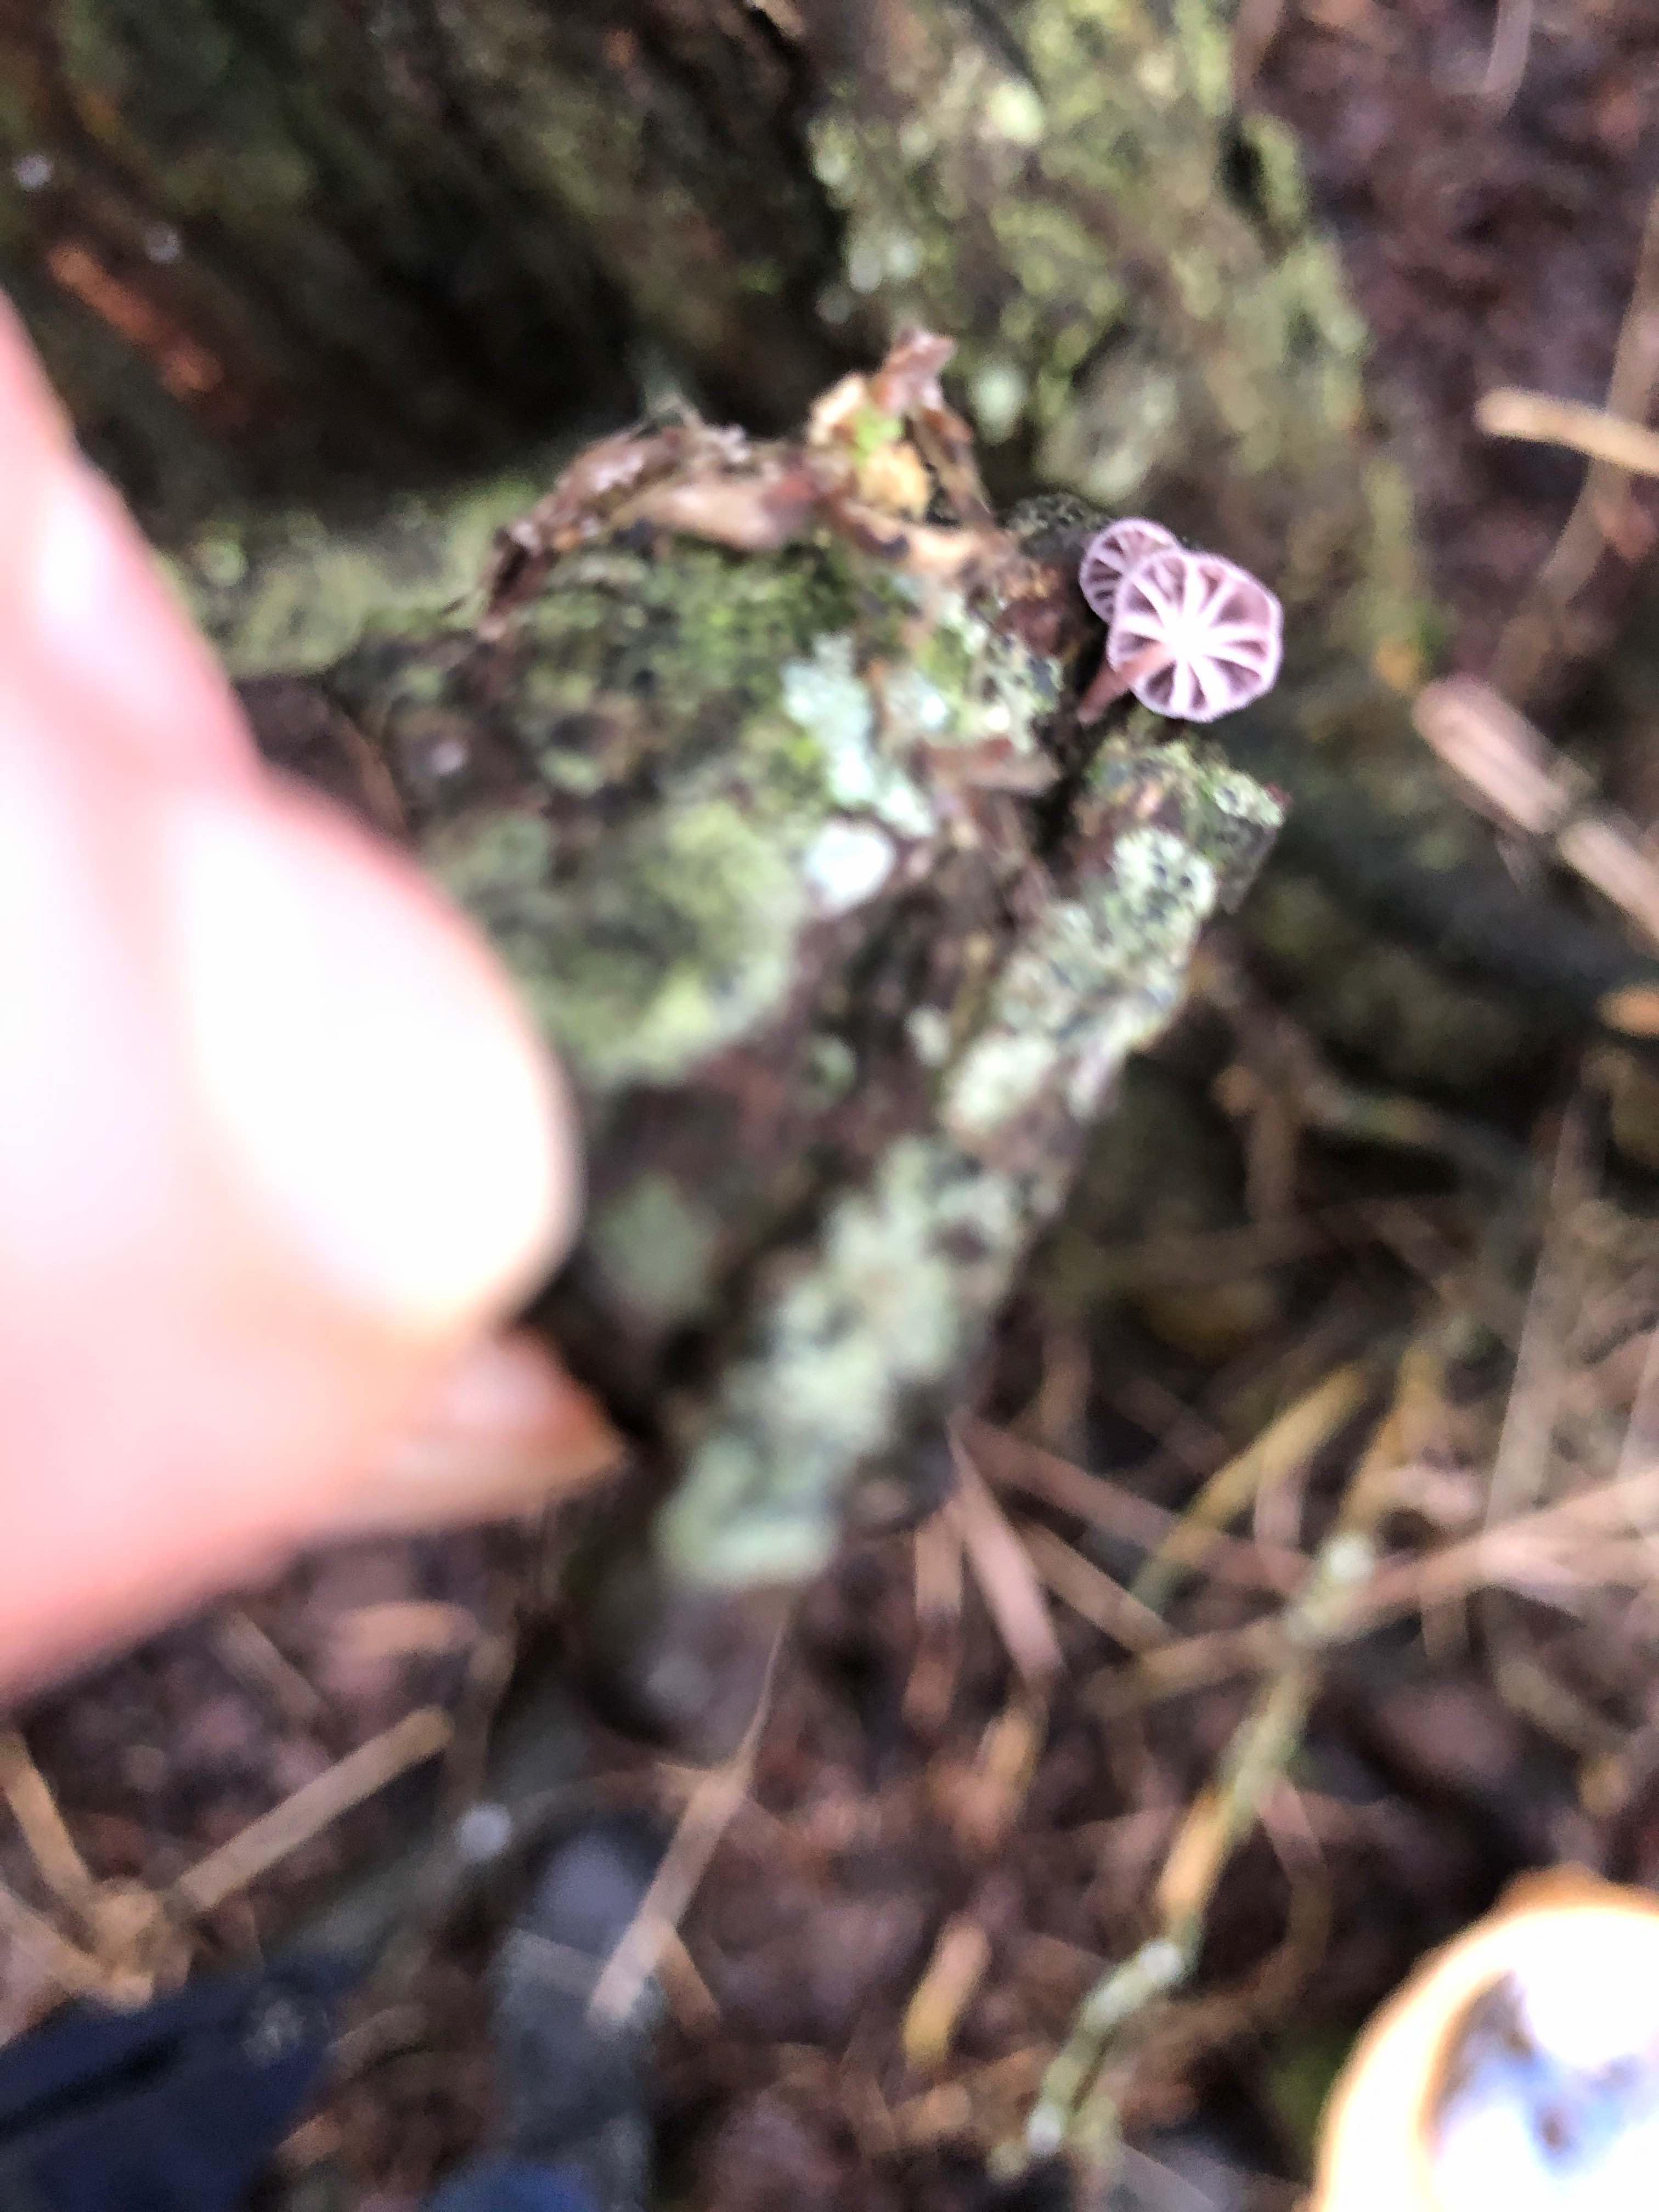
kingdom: Fungi
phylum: Basidiomycota
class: Agaricomycetes
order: Agaricales
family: Mycenaceae
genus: Mycena
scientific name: Mycena meliigena
